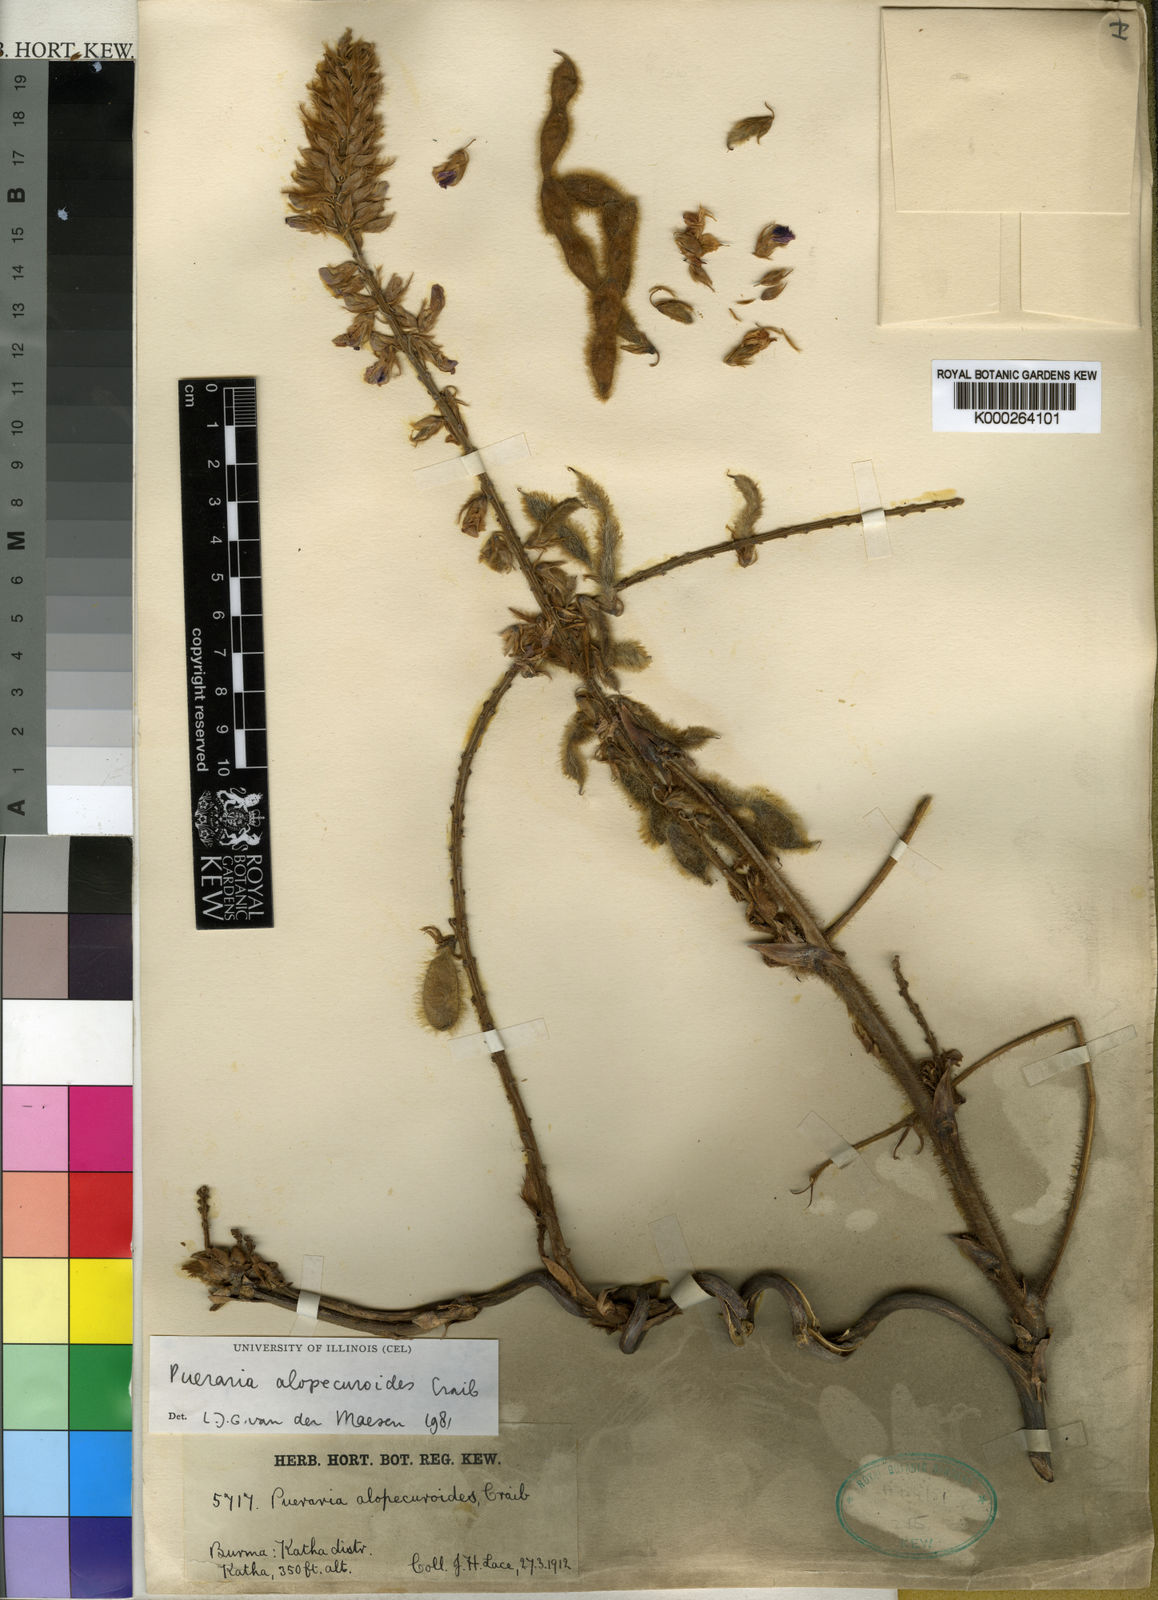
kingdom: Plantae
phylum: Tracheophyta
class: Magnoliopsida
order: Fabales
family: Fabaceae
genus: Pueraria
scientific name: Pueraria alopecuroides
